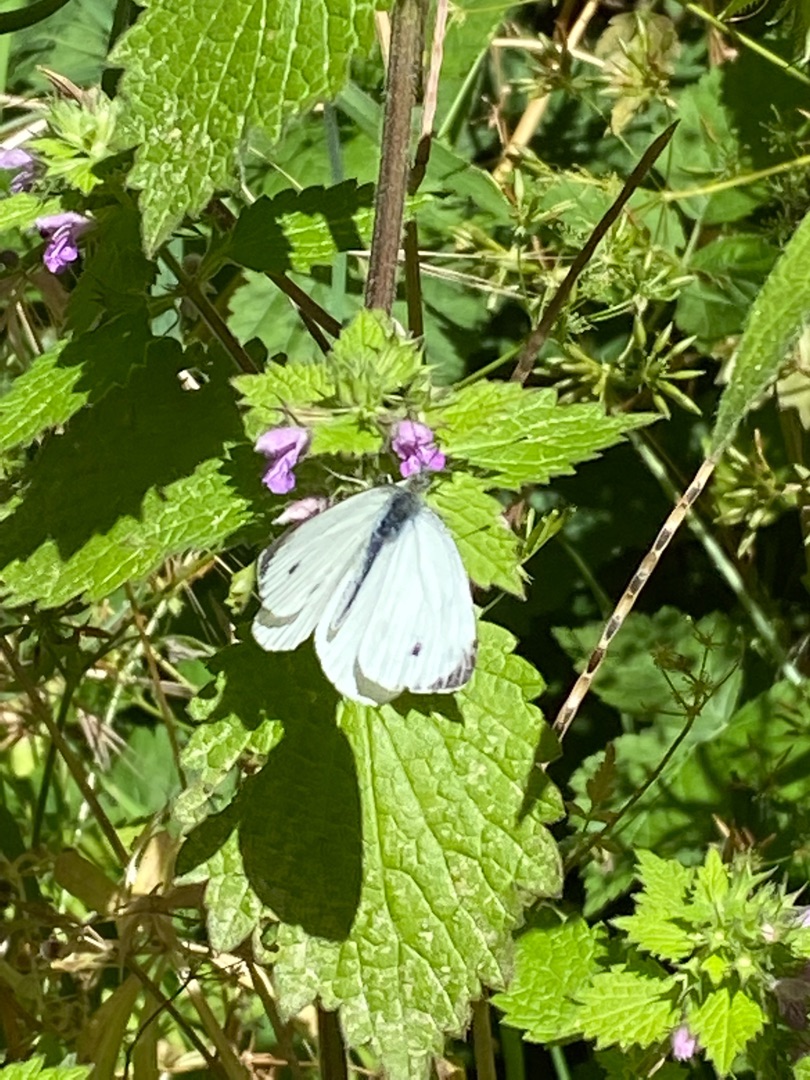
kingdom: Animalia
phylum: Arthropoda
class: Insecta
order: Lepidoptera
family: Pieridae
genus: Pieris
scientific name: Pieris napi
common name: Grønåret kålsommerfugl
